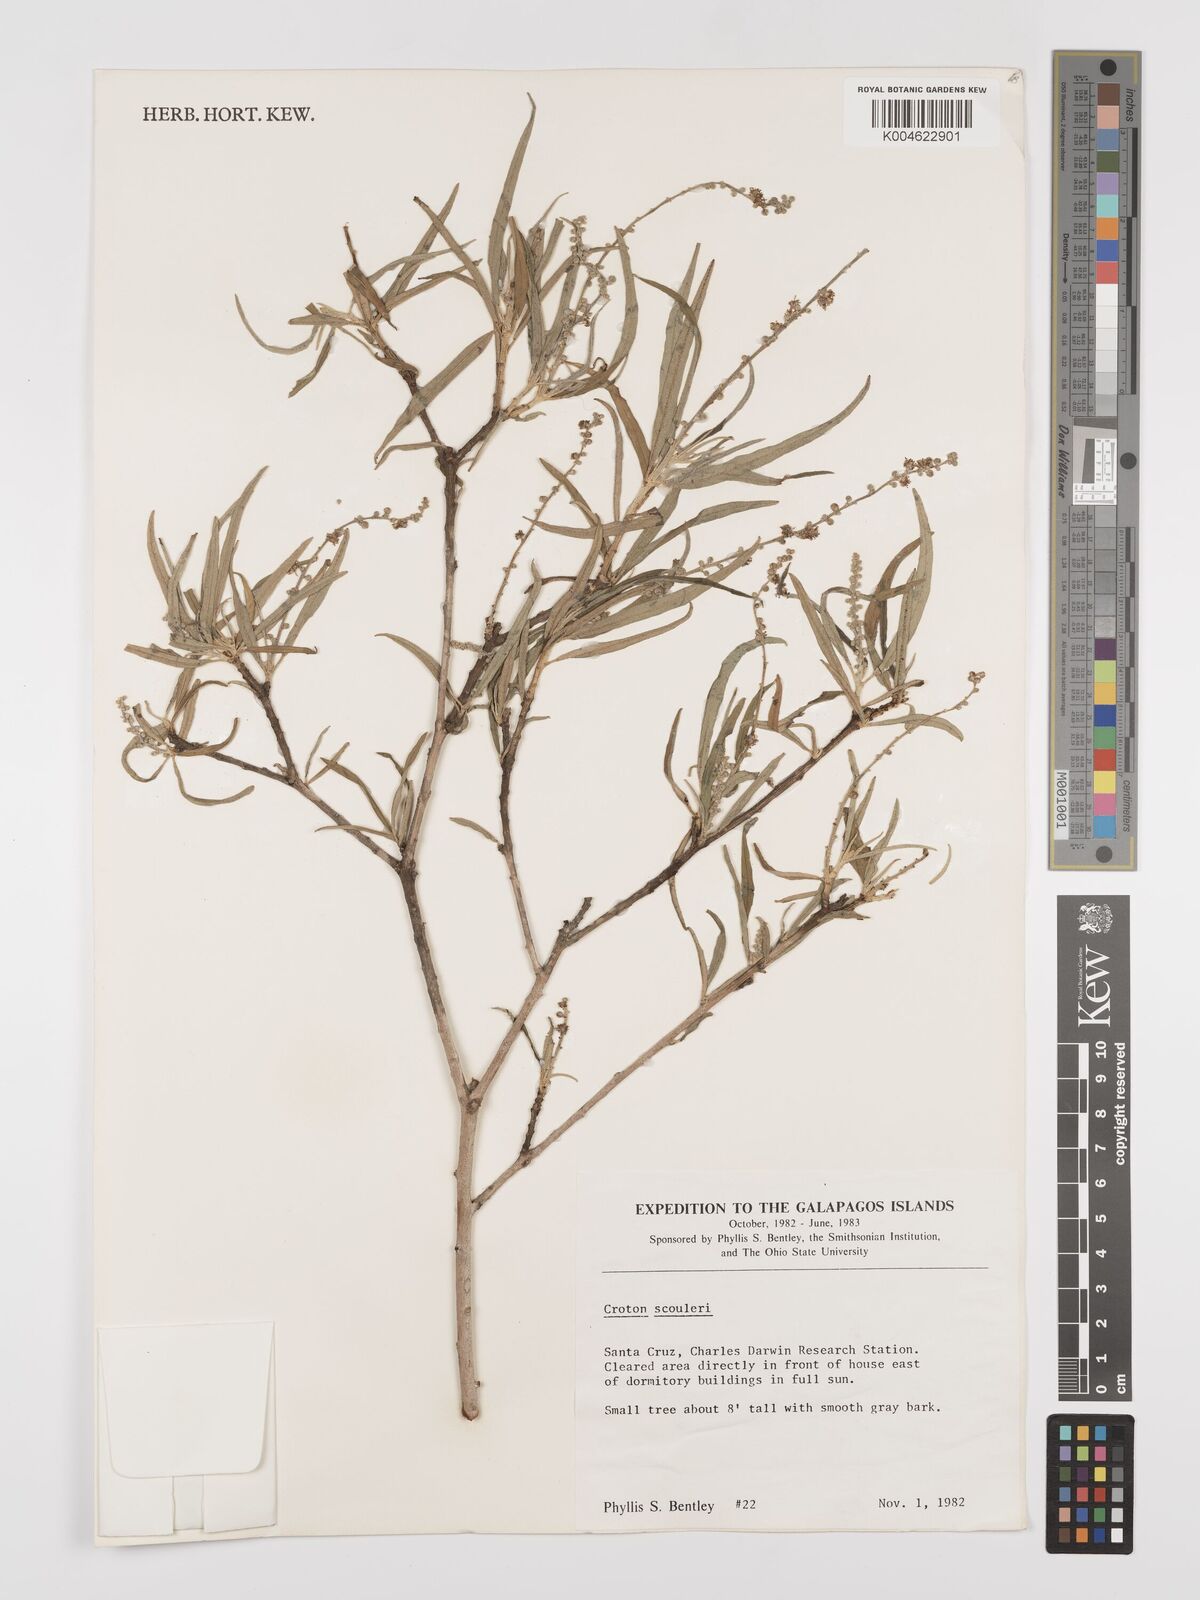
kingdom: Plantae
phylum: Tracheophyta
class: Magnoliopsida
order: Malpighiales
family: Euphorbiaceae
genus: Croton
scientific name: Croton scouleri
